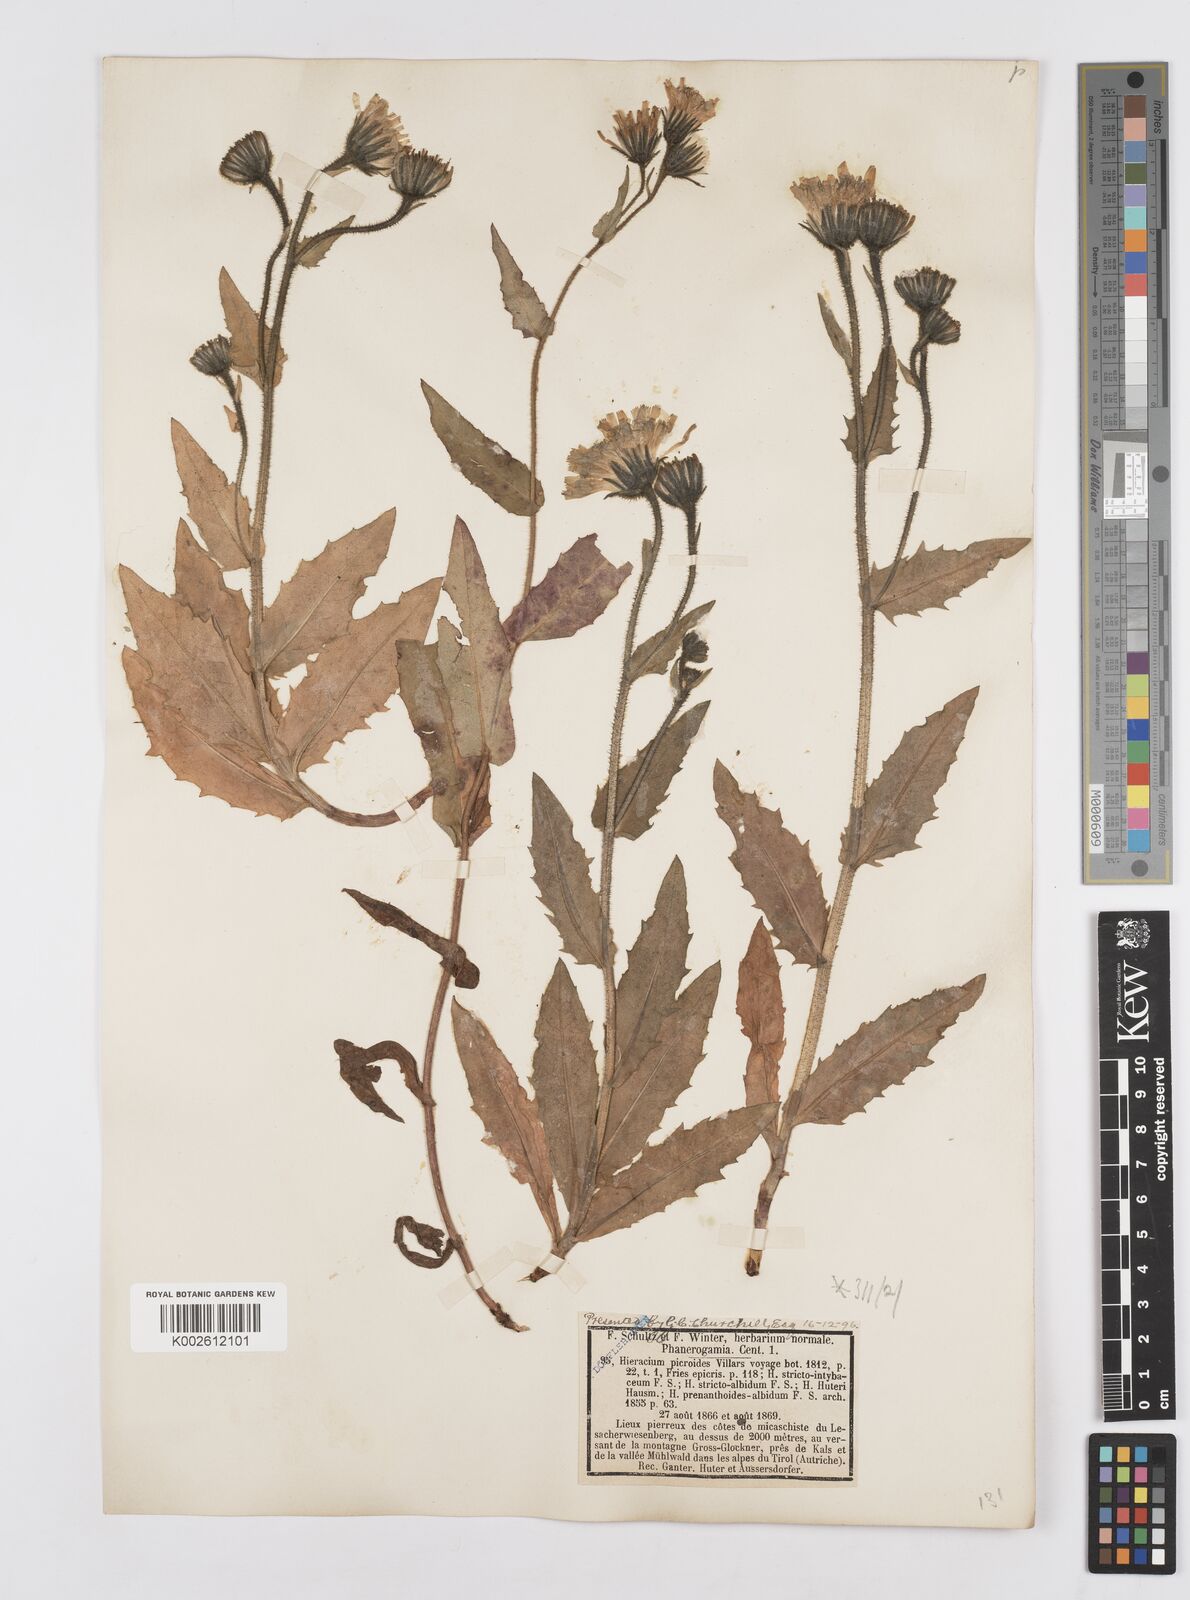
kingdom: Plantae
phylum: Tracheophyta
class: Magnoliopsida
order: Asterales
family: Asteraceae
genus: Hieracium
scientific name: Hieracium
